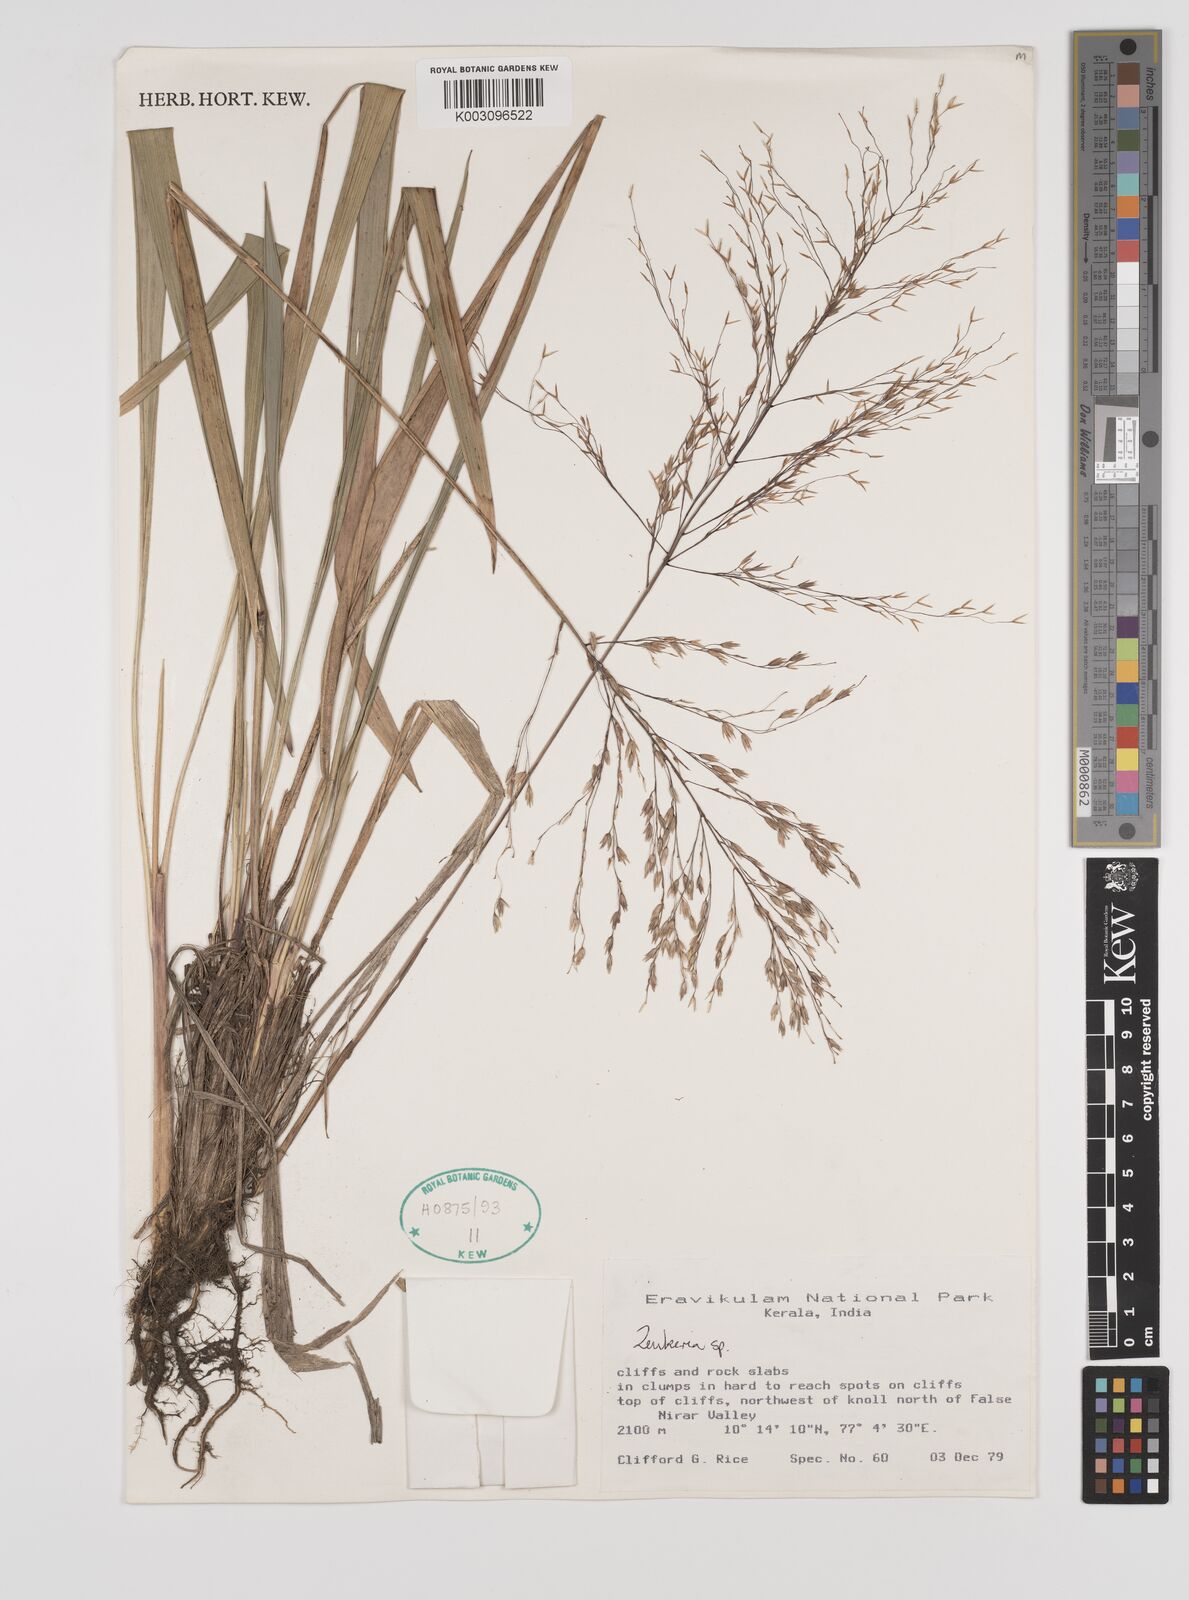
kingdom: Plantae
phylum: Tracheophyta
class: Liliopsida
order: Poales
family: Poaceae
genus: Zenkeria
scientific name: Zenkeria
